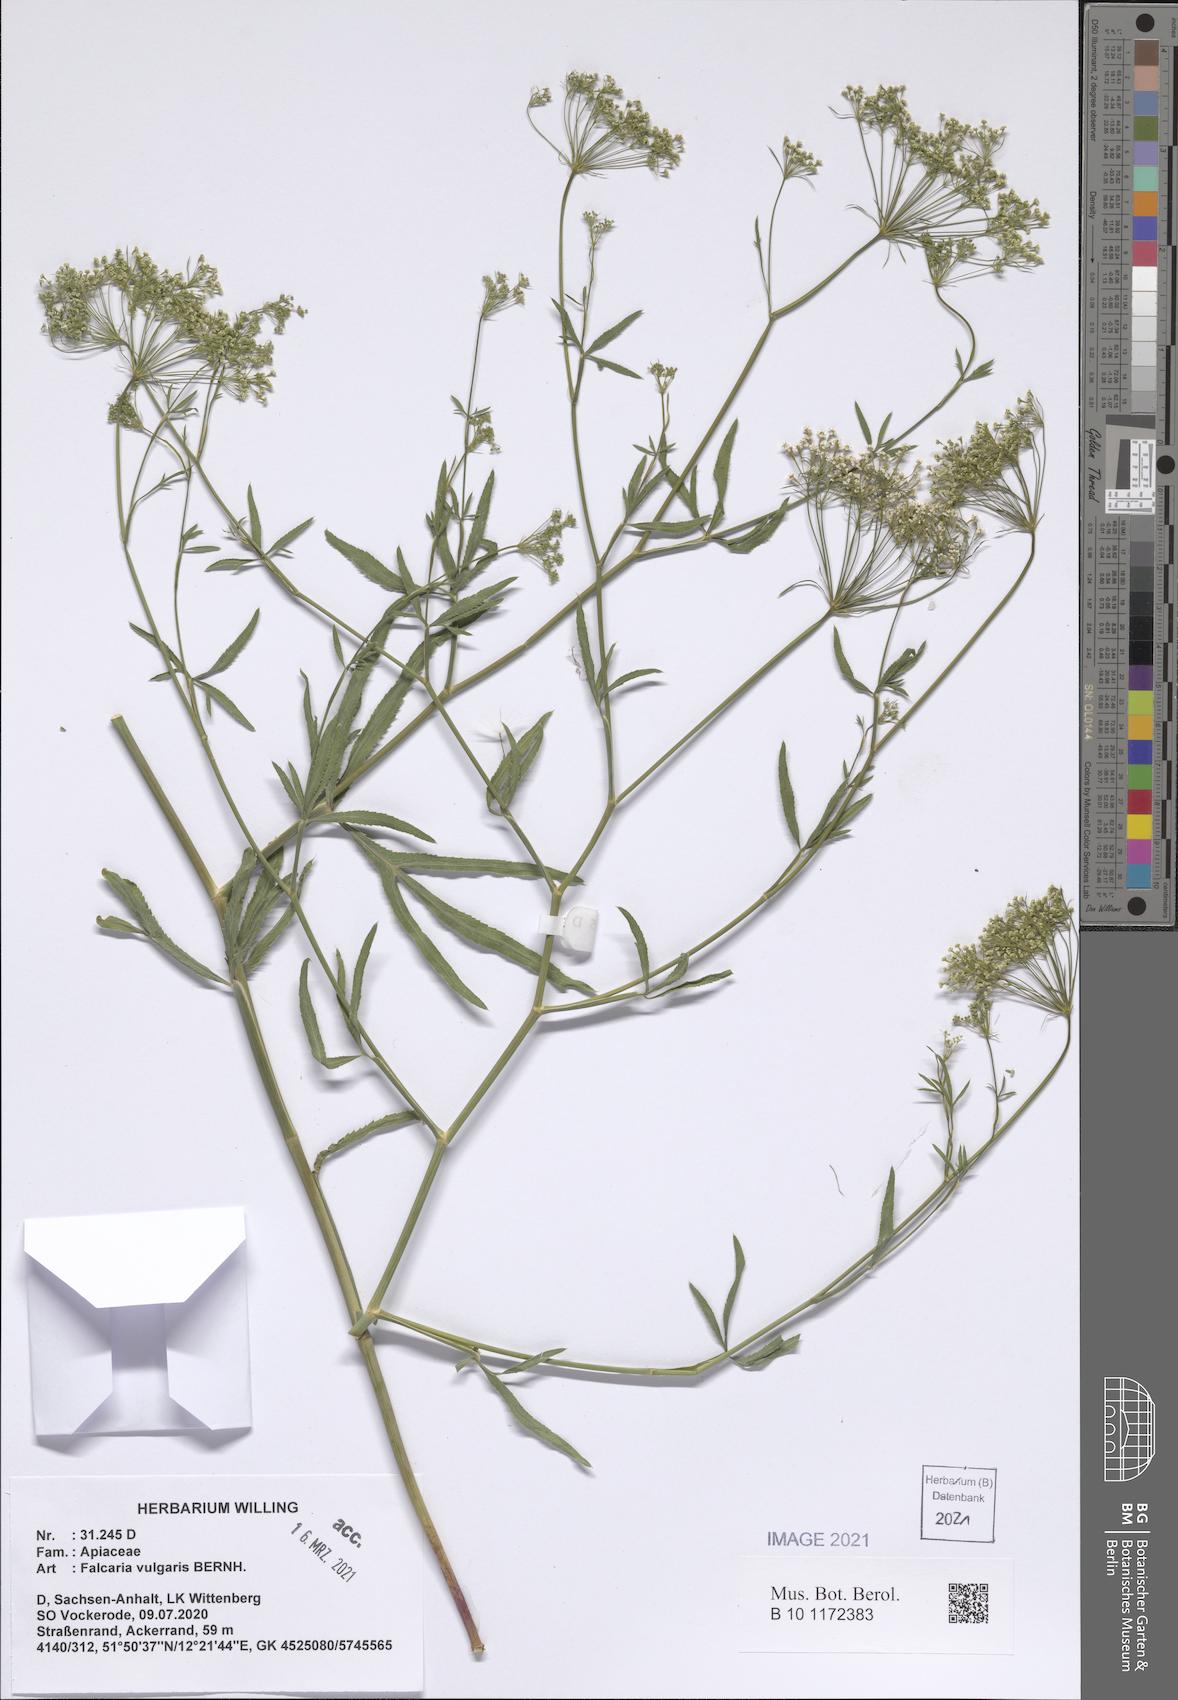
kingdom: Plantae
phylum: Tracheophyta
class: Magnoliopsida
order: Apiales
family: Apiaceae
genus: Falcaria
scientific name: Falcaria vulgaris
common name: Longleaf
